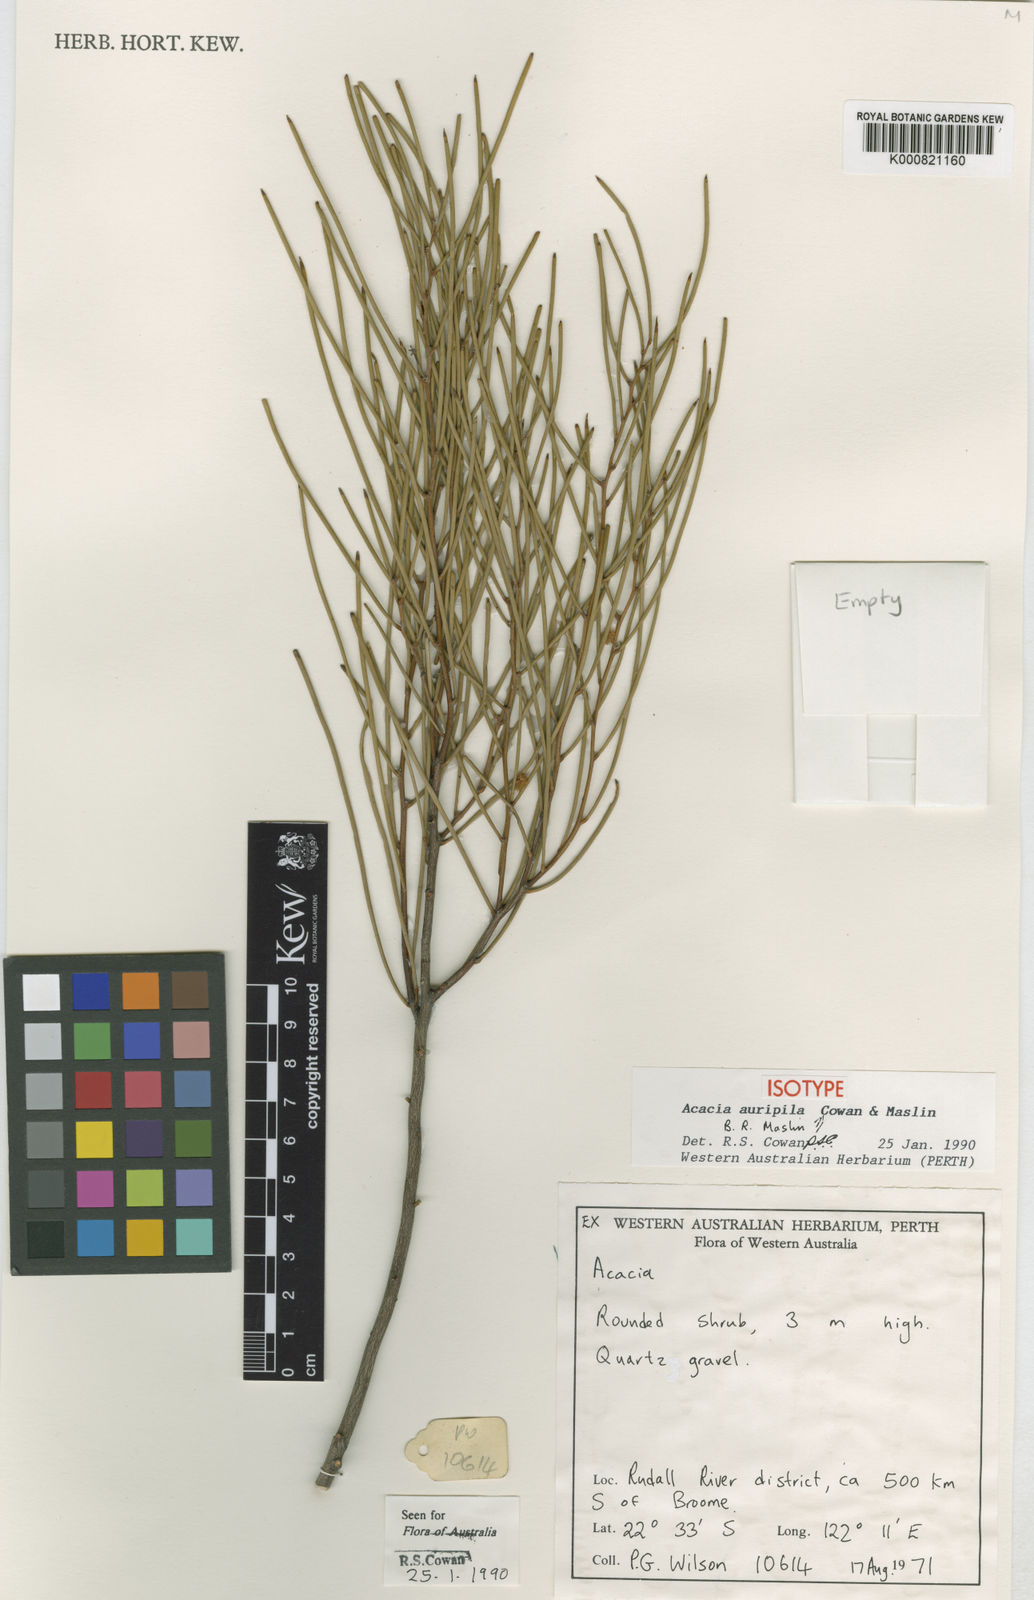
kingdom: Plantae
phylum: Tracheophyta
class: Magnoliopsida
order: Fabales
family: Fabaceae
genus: Acacia
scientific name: Acacia auripila
